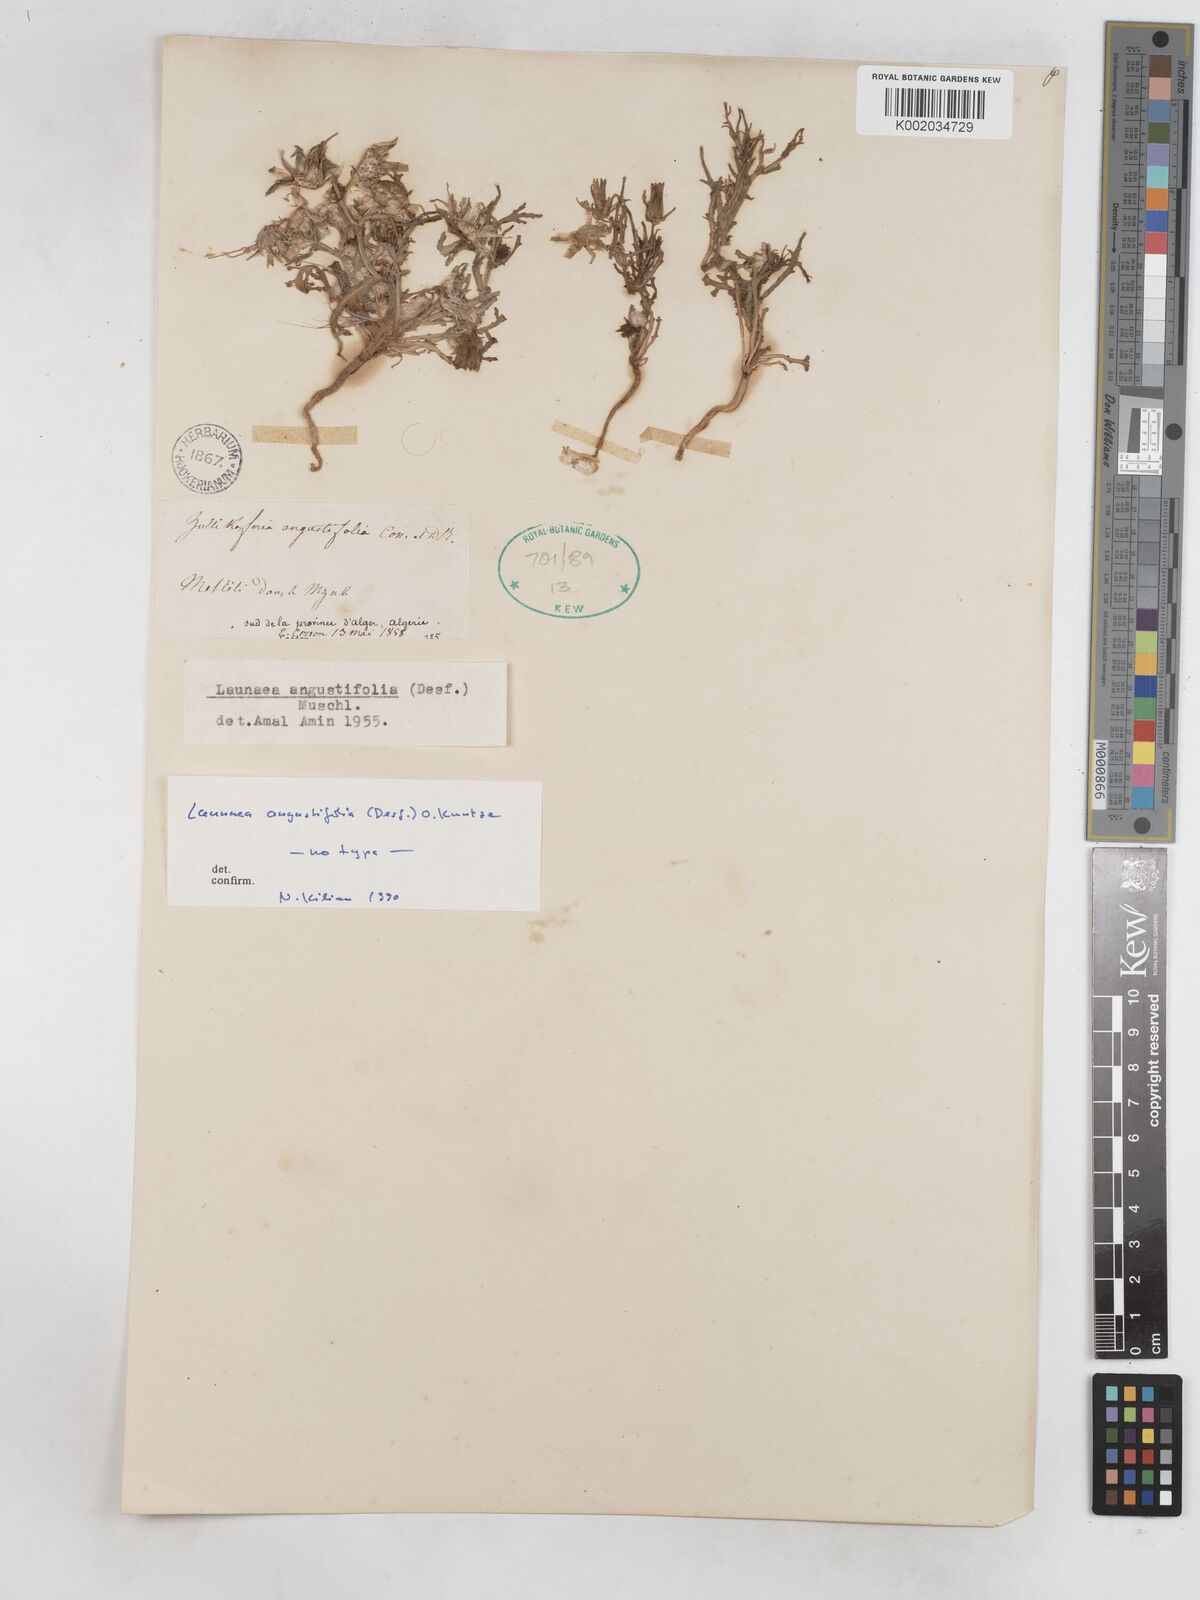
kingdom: Plantae
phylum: Tracheophyta
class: Magnoliopsida
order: Asterales
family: Asteraceae
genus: Launaea
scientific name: Launaea angustifolia
